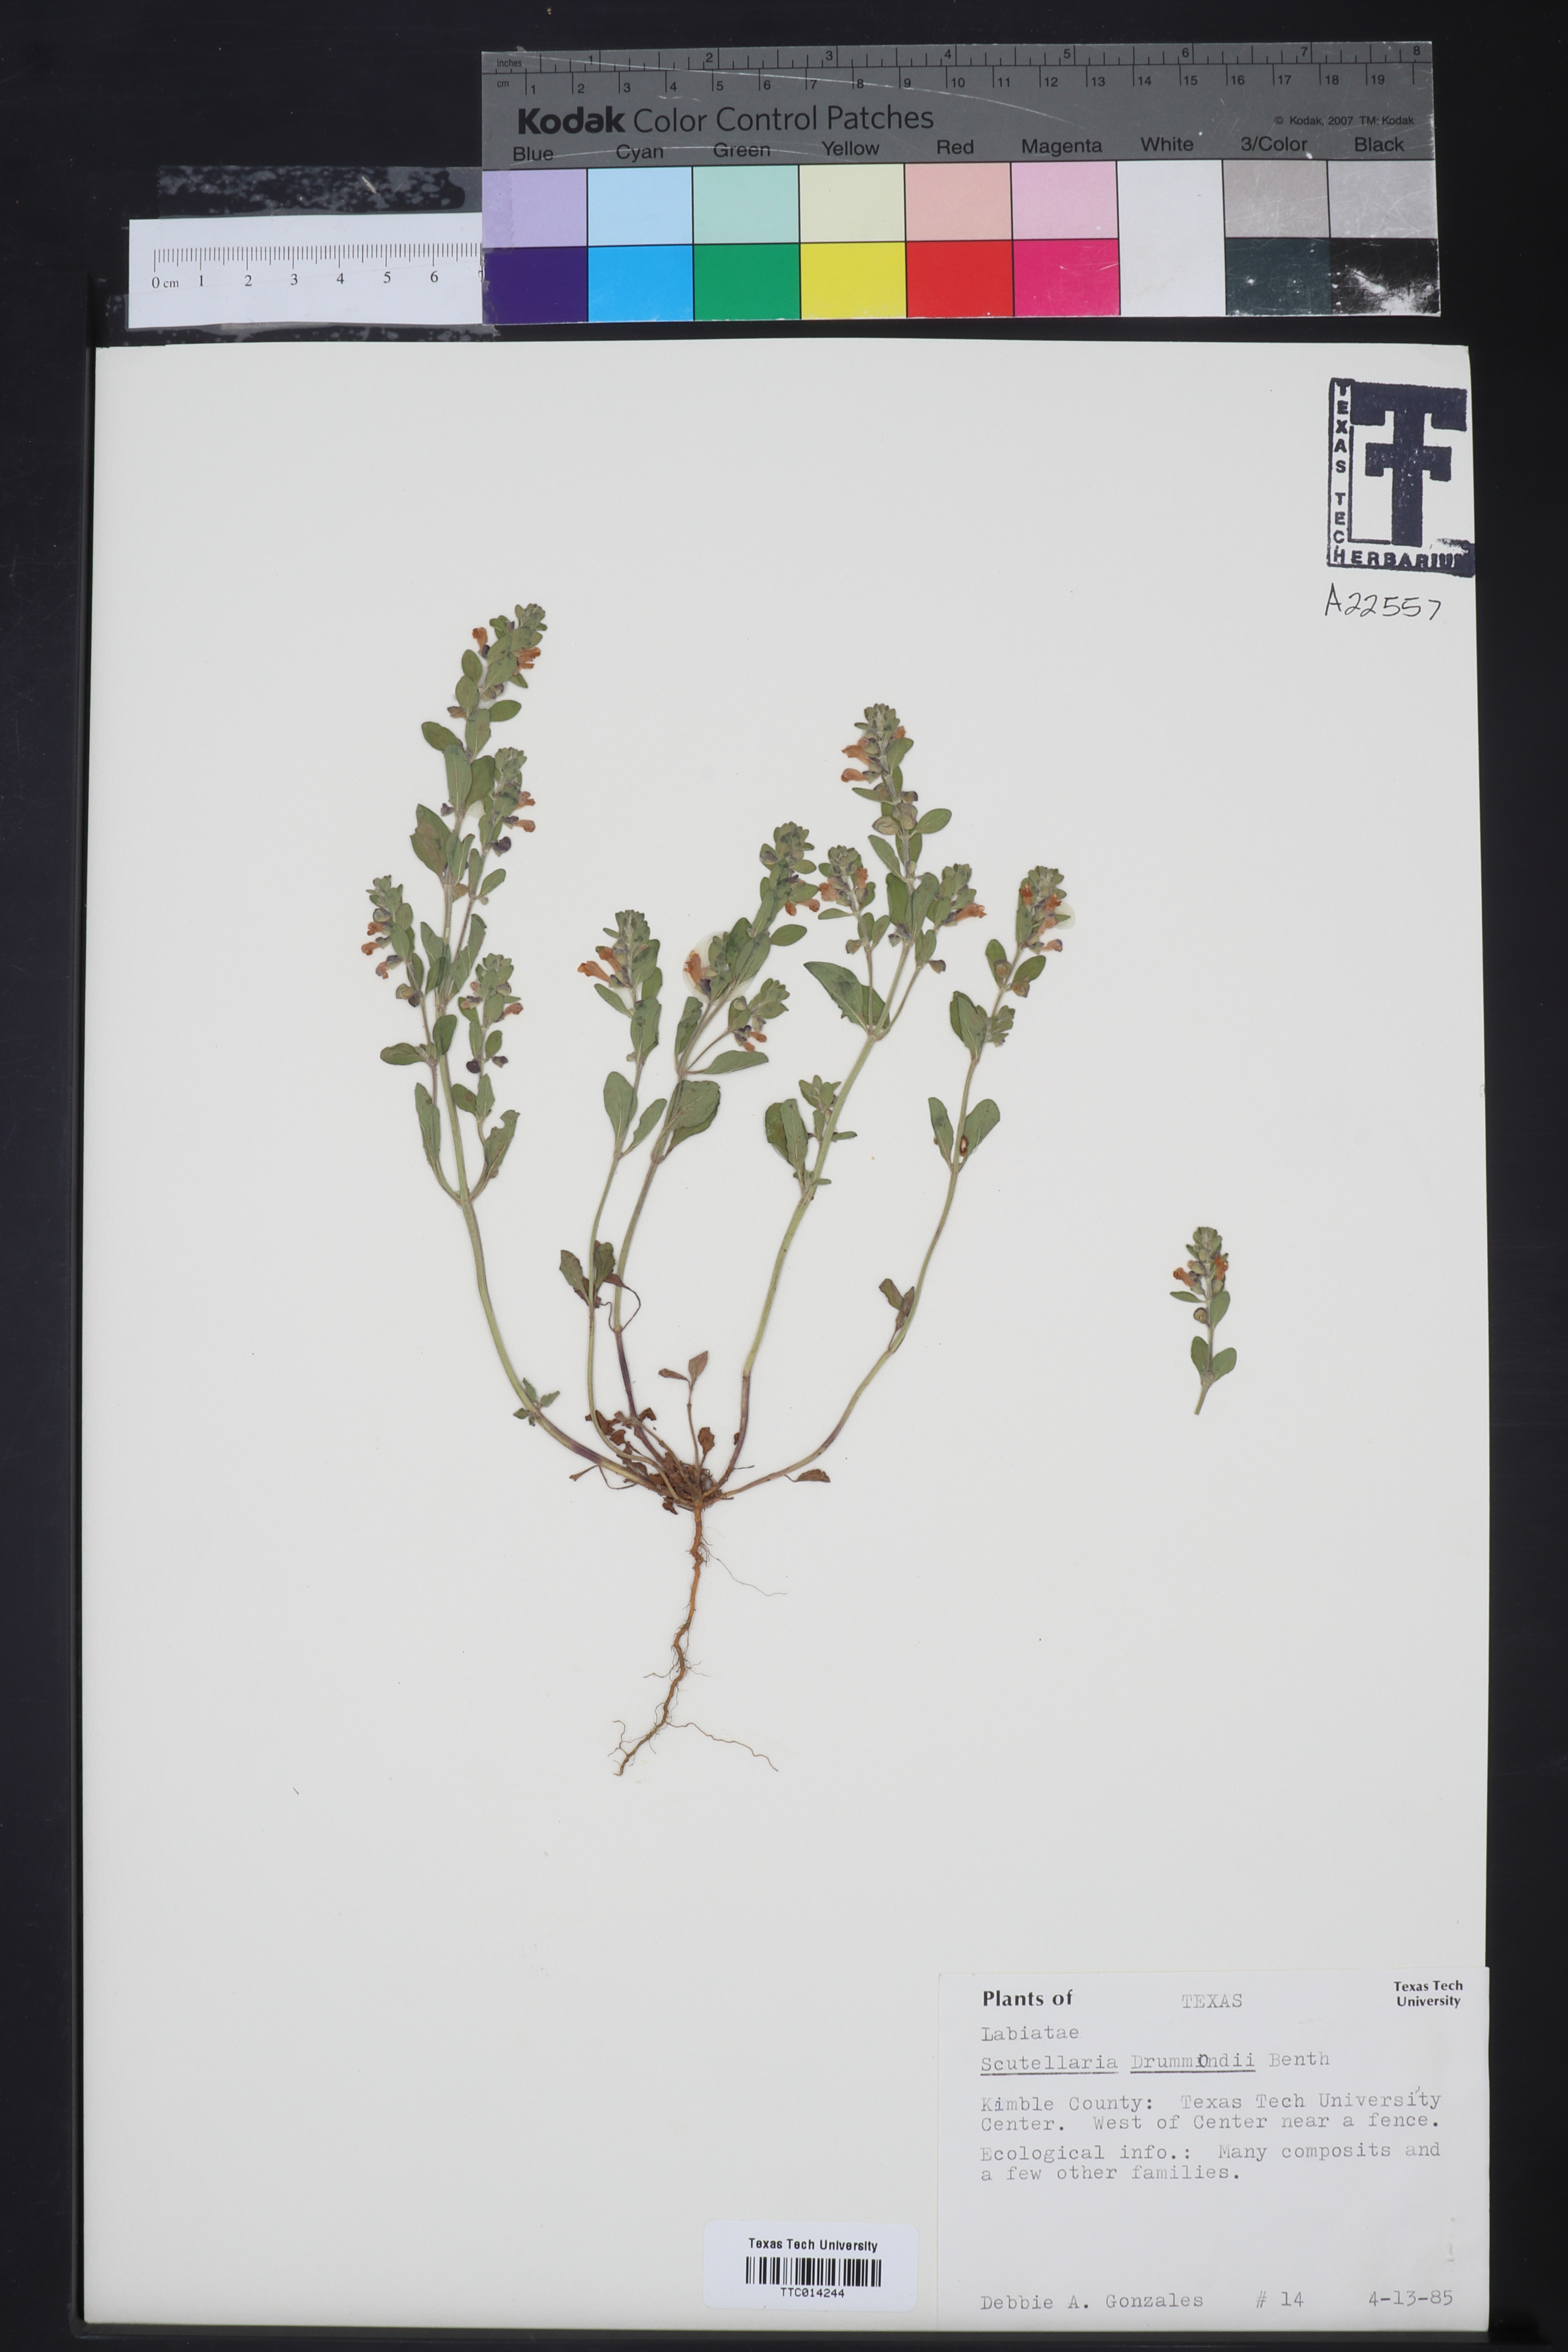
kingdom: Plantae
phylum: Tracheophyta
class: Magnoliopsida
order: Lamiales
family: Lamiaceae
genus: Scutellaria
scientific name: Scutellaria drummondii
